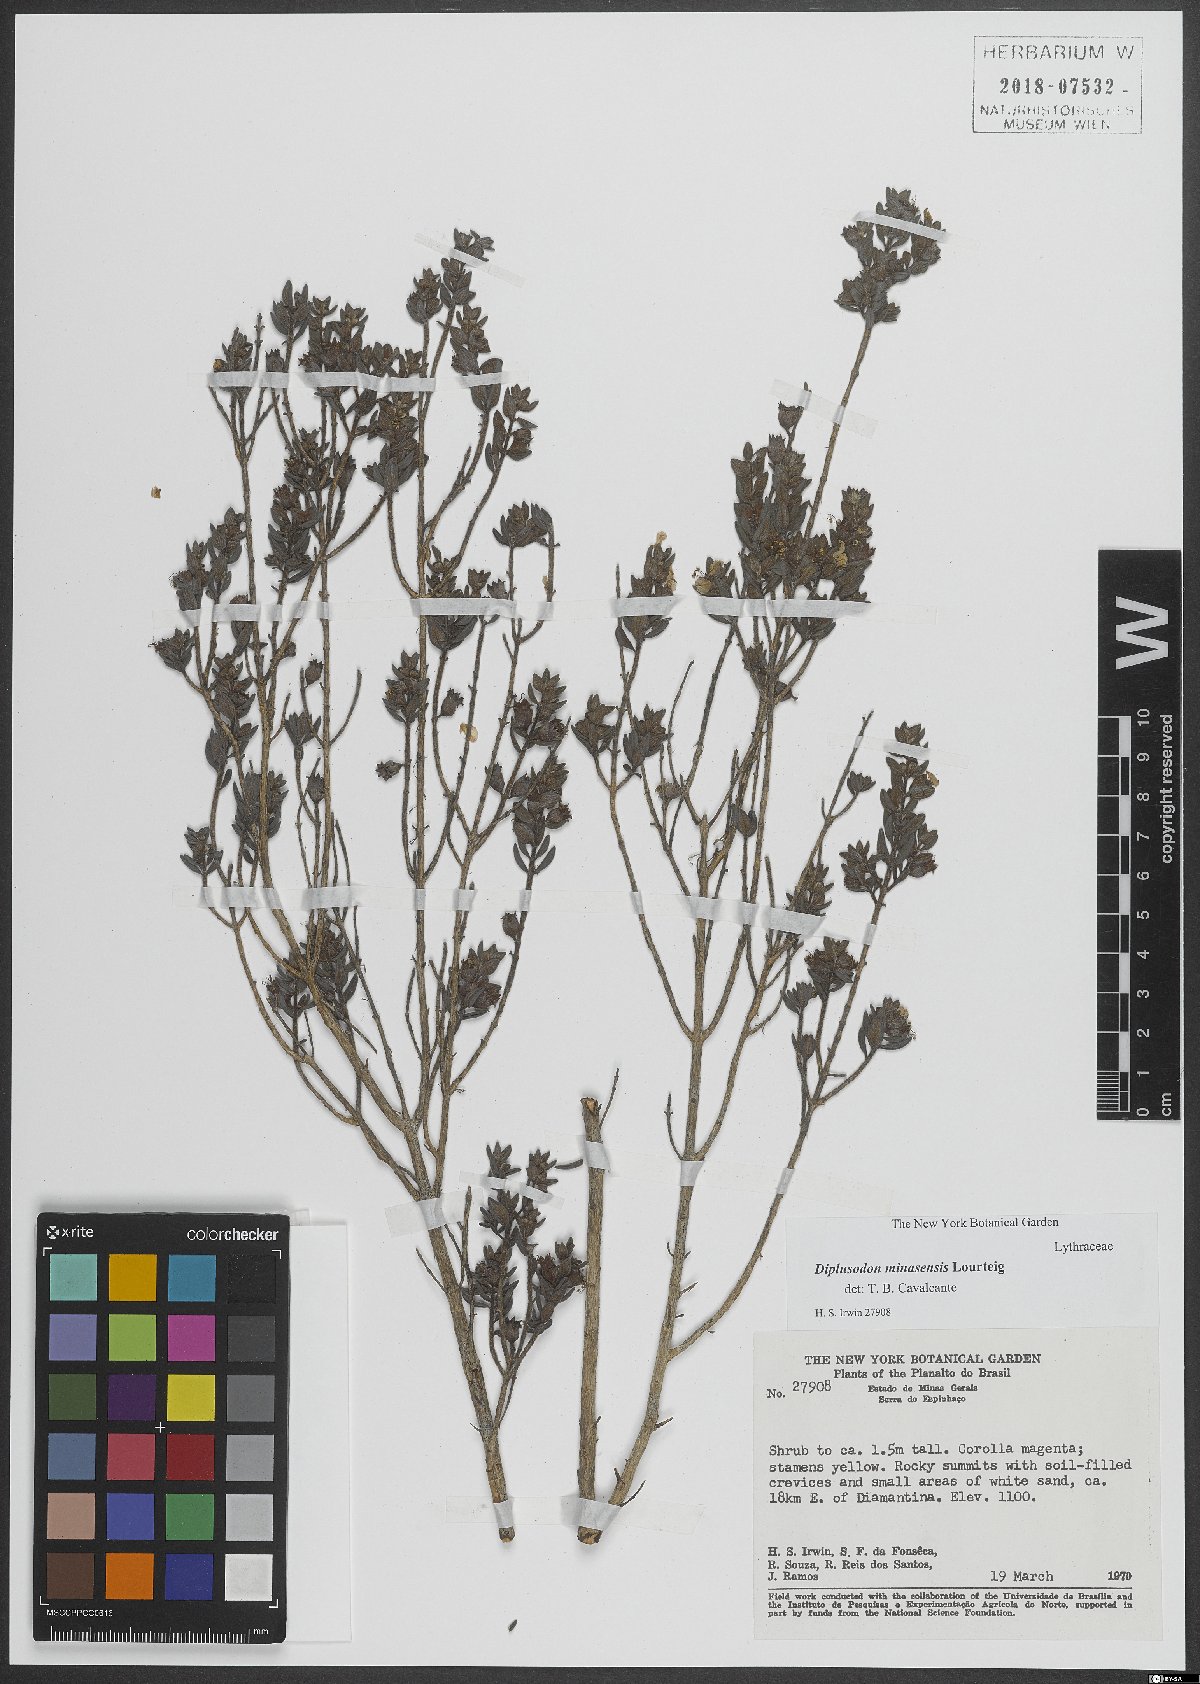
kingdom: Plantae
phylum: Tracheophyta
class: Magnoliopsida
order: Myrtales
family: Lythraceae
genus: Diplusodon
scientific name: Diplusodon minasensis
